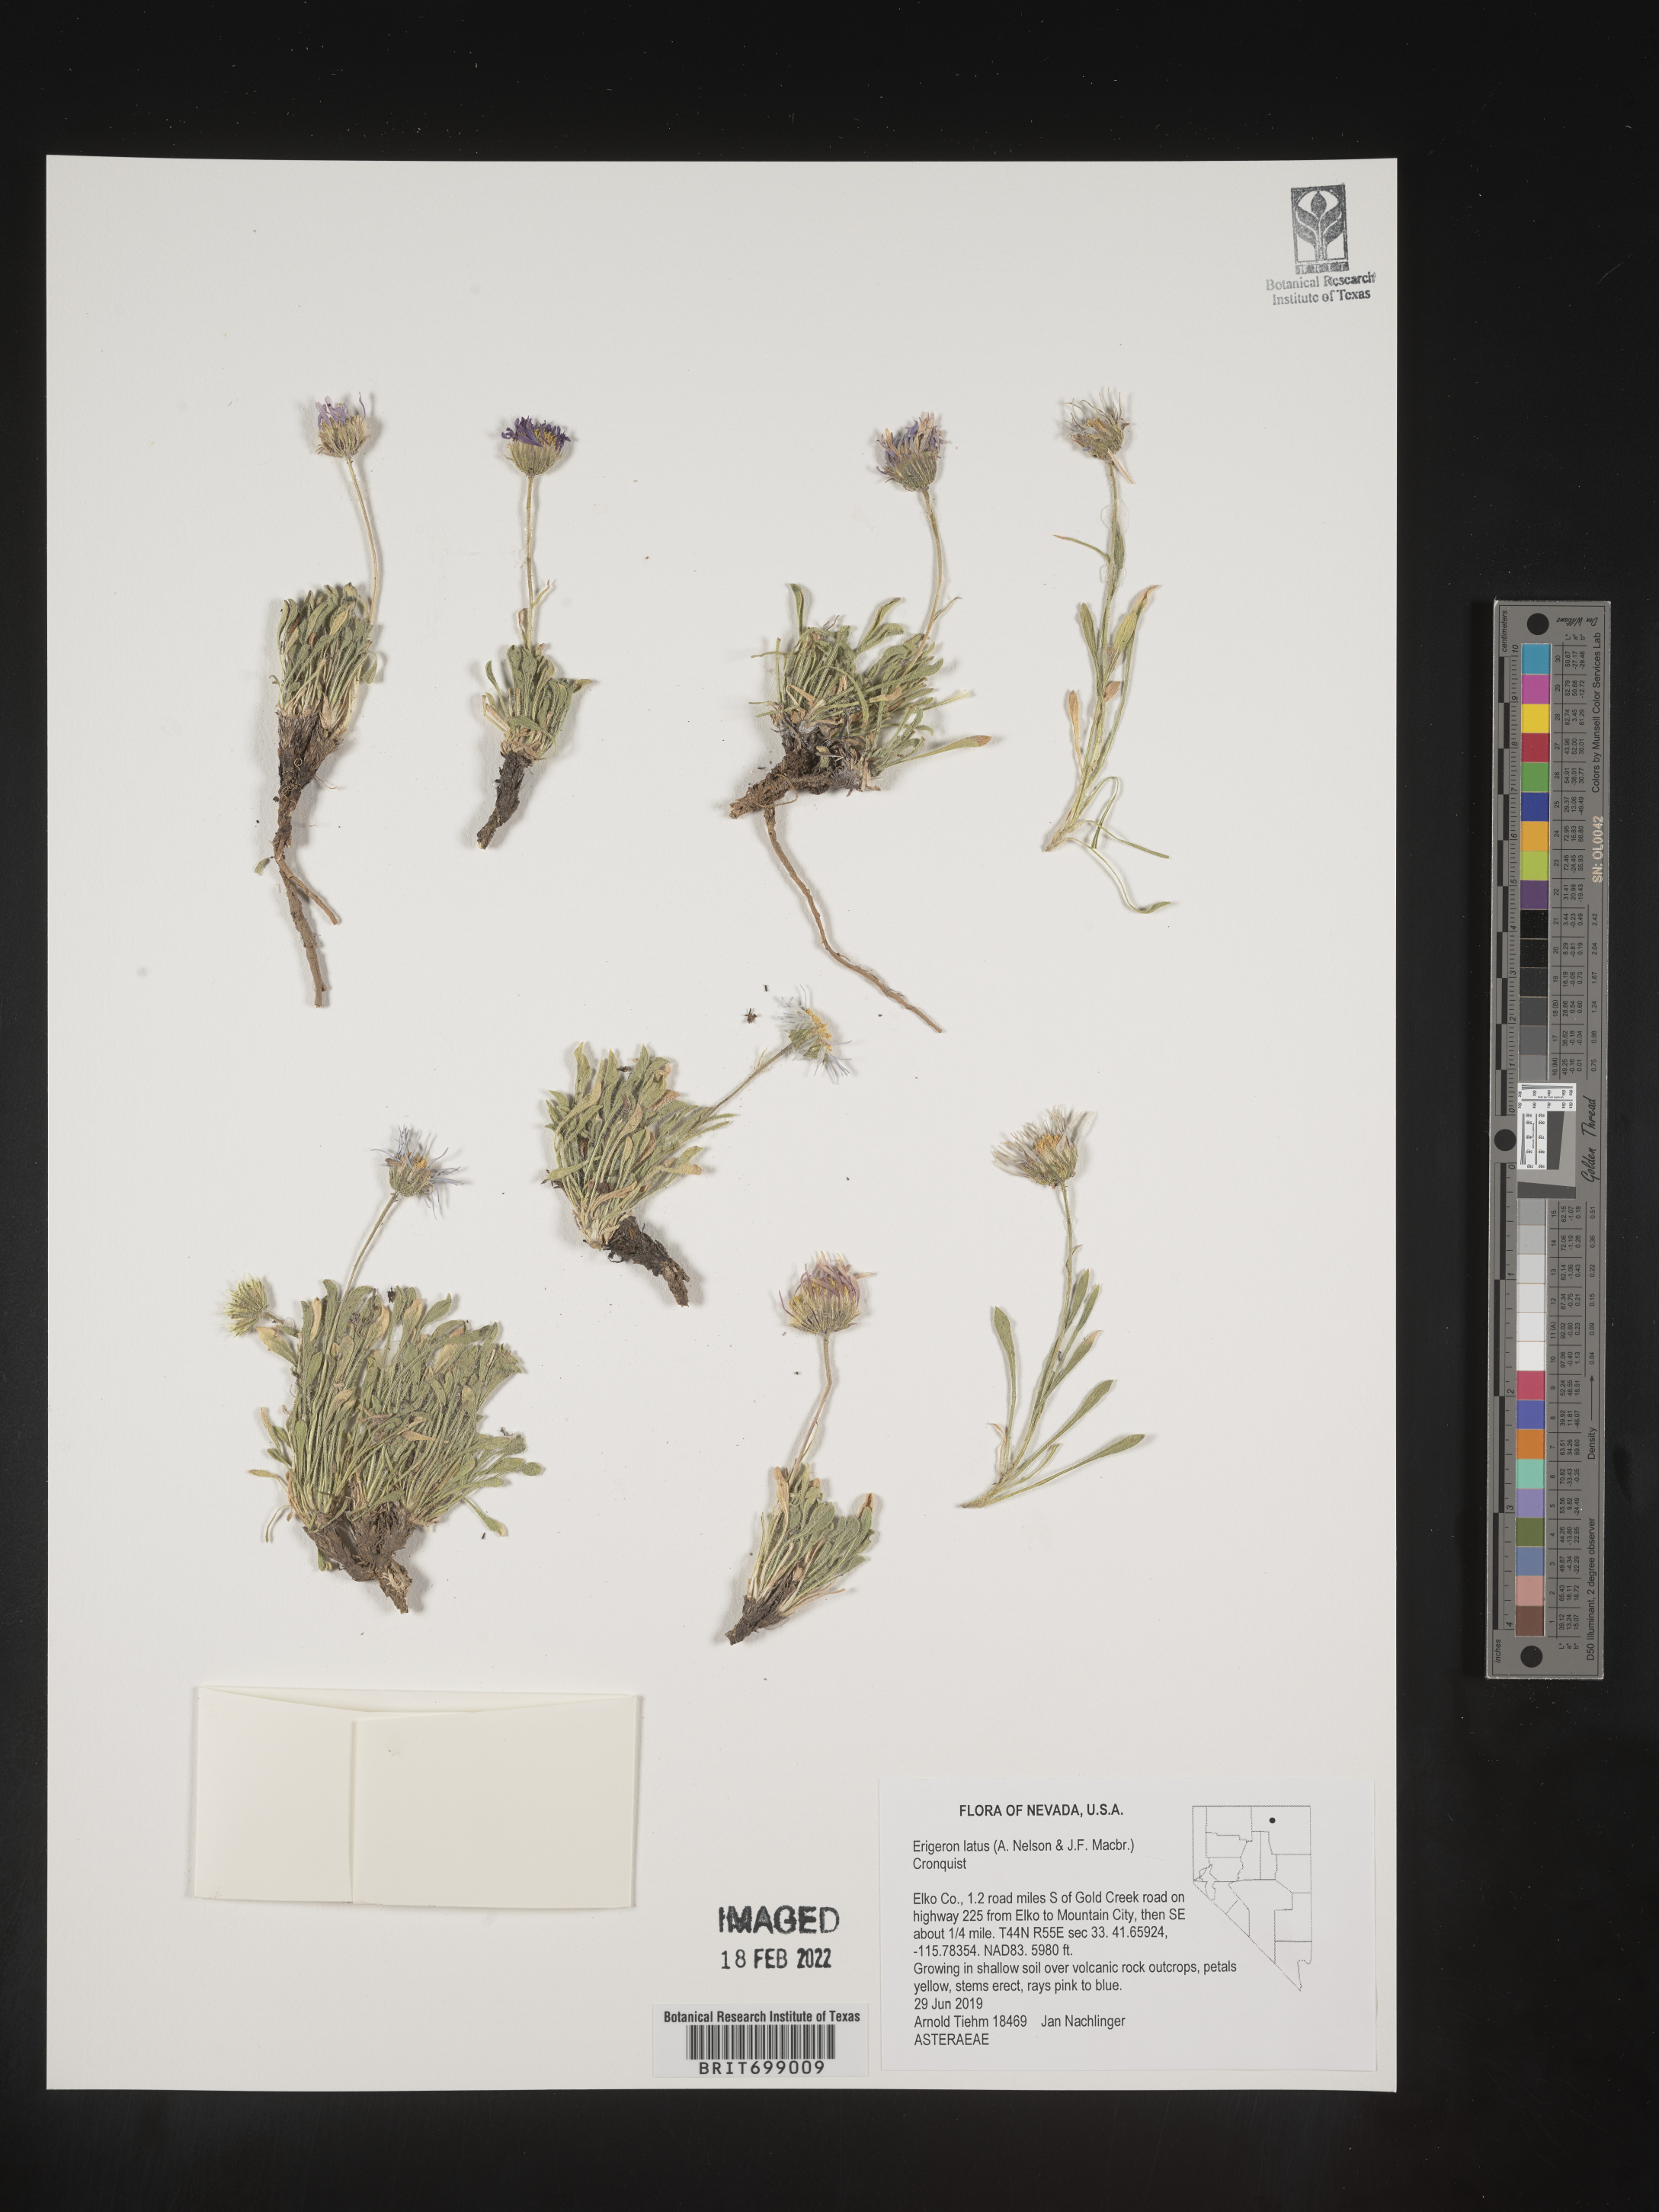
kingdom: Plantae
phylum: Tracheophyta
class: Magnoliopsida
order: Asterales
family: Asteraceae
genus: Erigeron
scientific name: Erigeron latus
